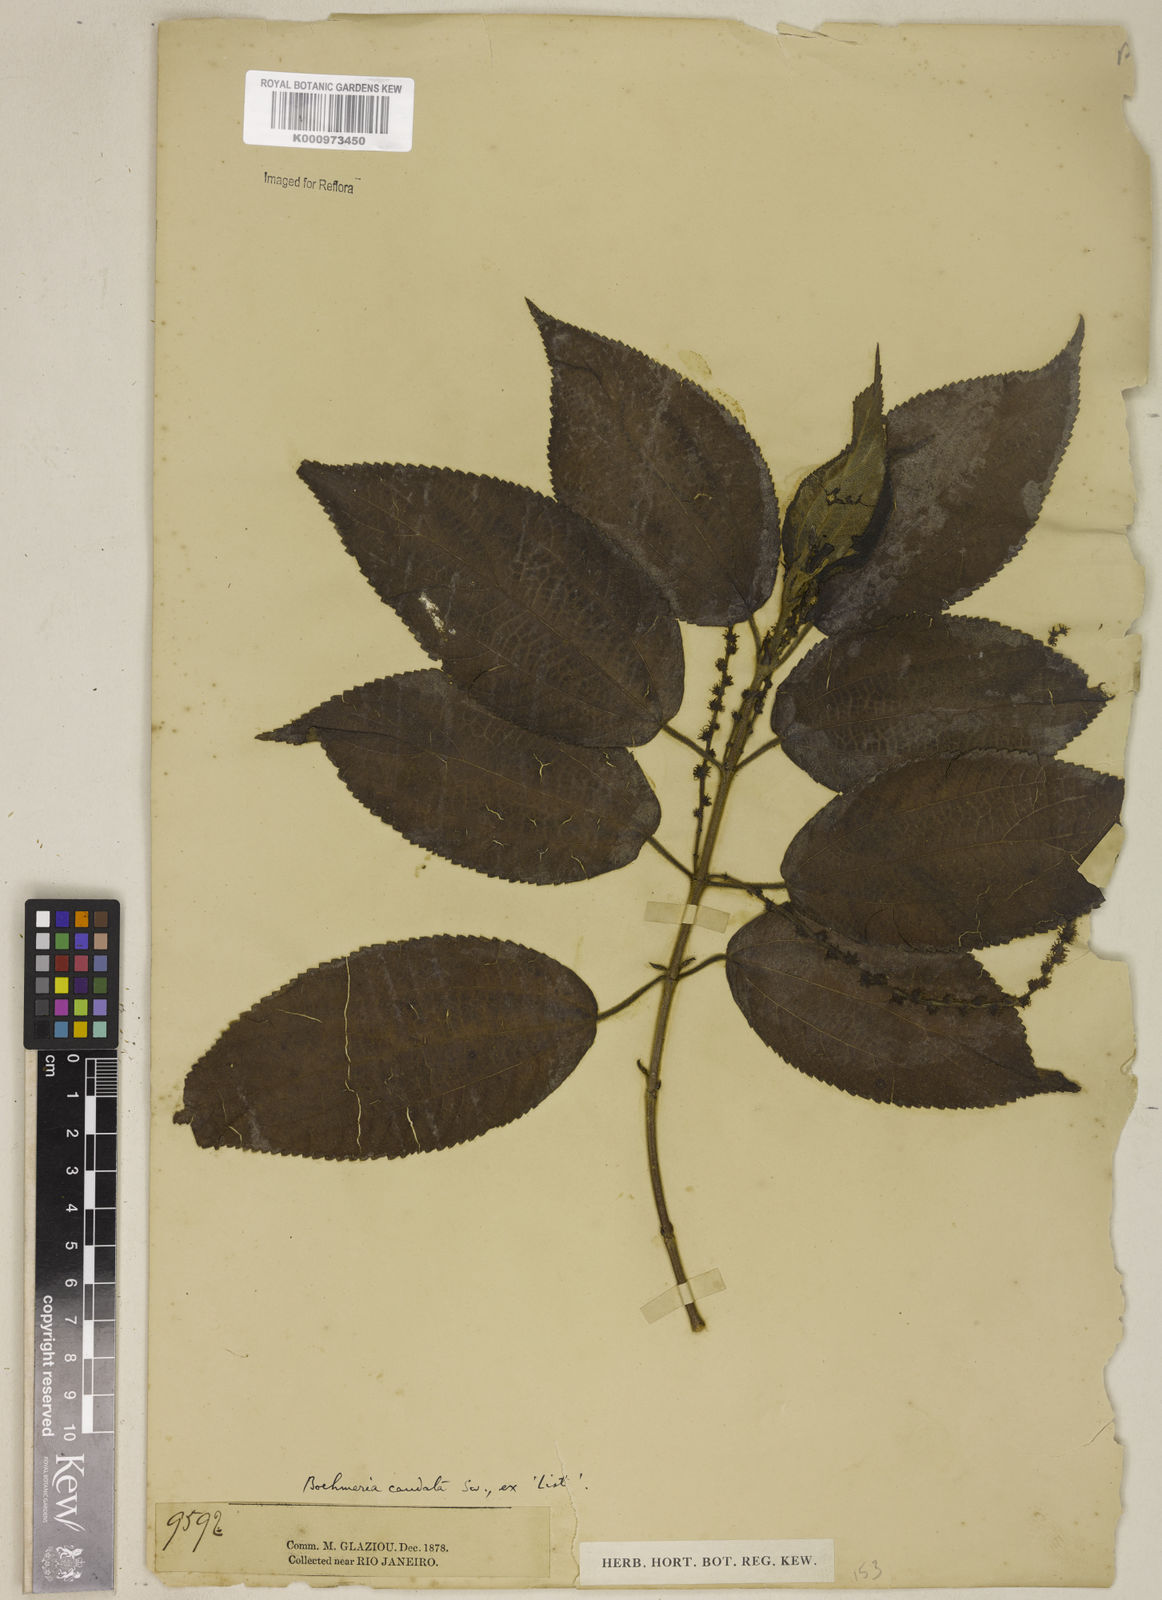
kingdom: Plantae
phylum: Tracheophyta
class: Magnoliopsida
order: Rosales
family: Urticaceae
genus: Boehmeria
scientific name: Boehmeria caudata
